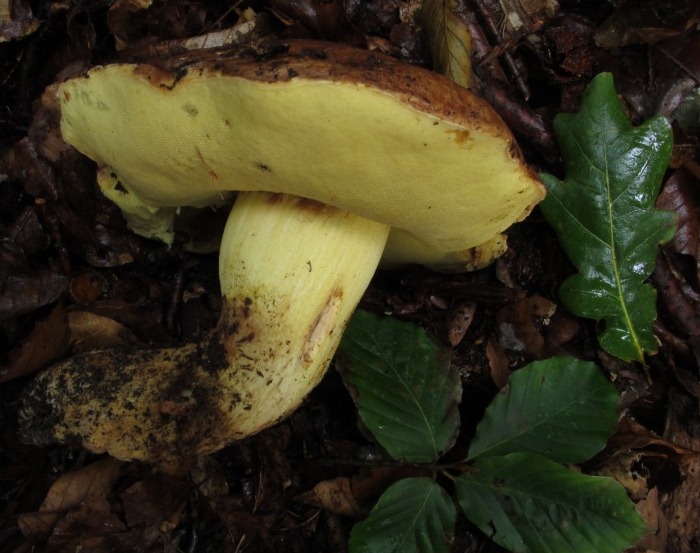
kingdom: Fungi
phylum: Basidiomycota
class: Agaricomycetes
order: Boletales
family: Boletaceae
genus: Butyriboletus
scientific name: Butyriboletus appendiculatus
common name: tenstokket rørhat
